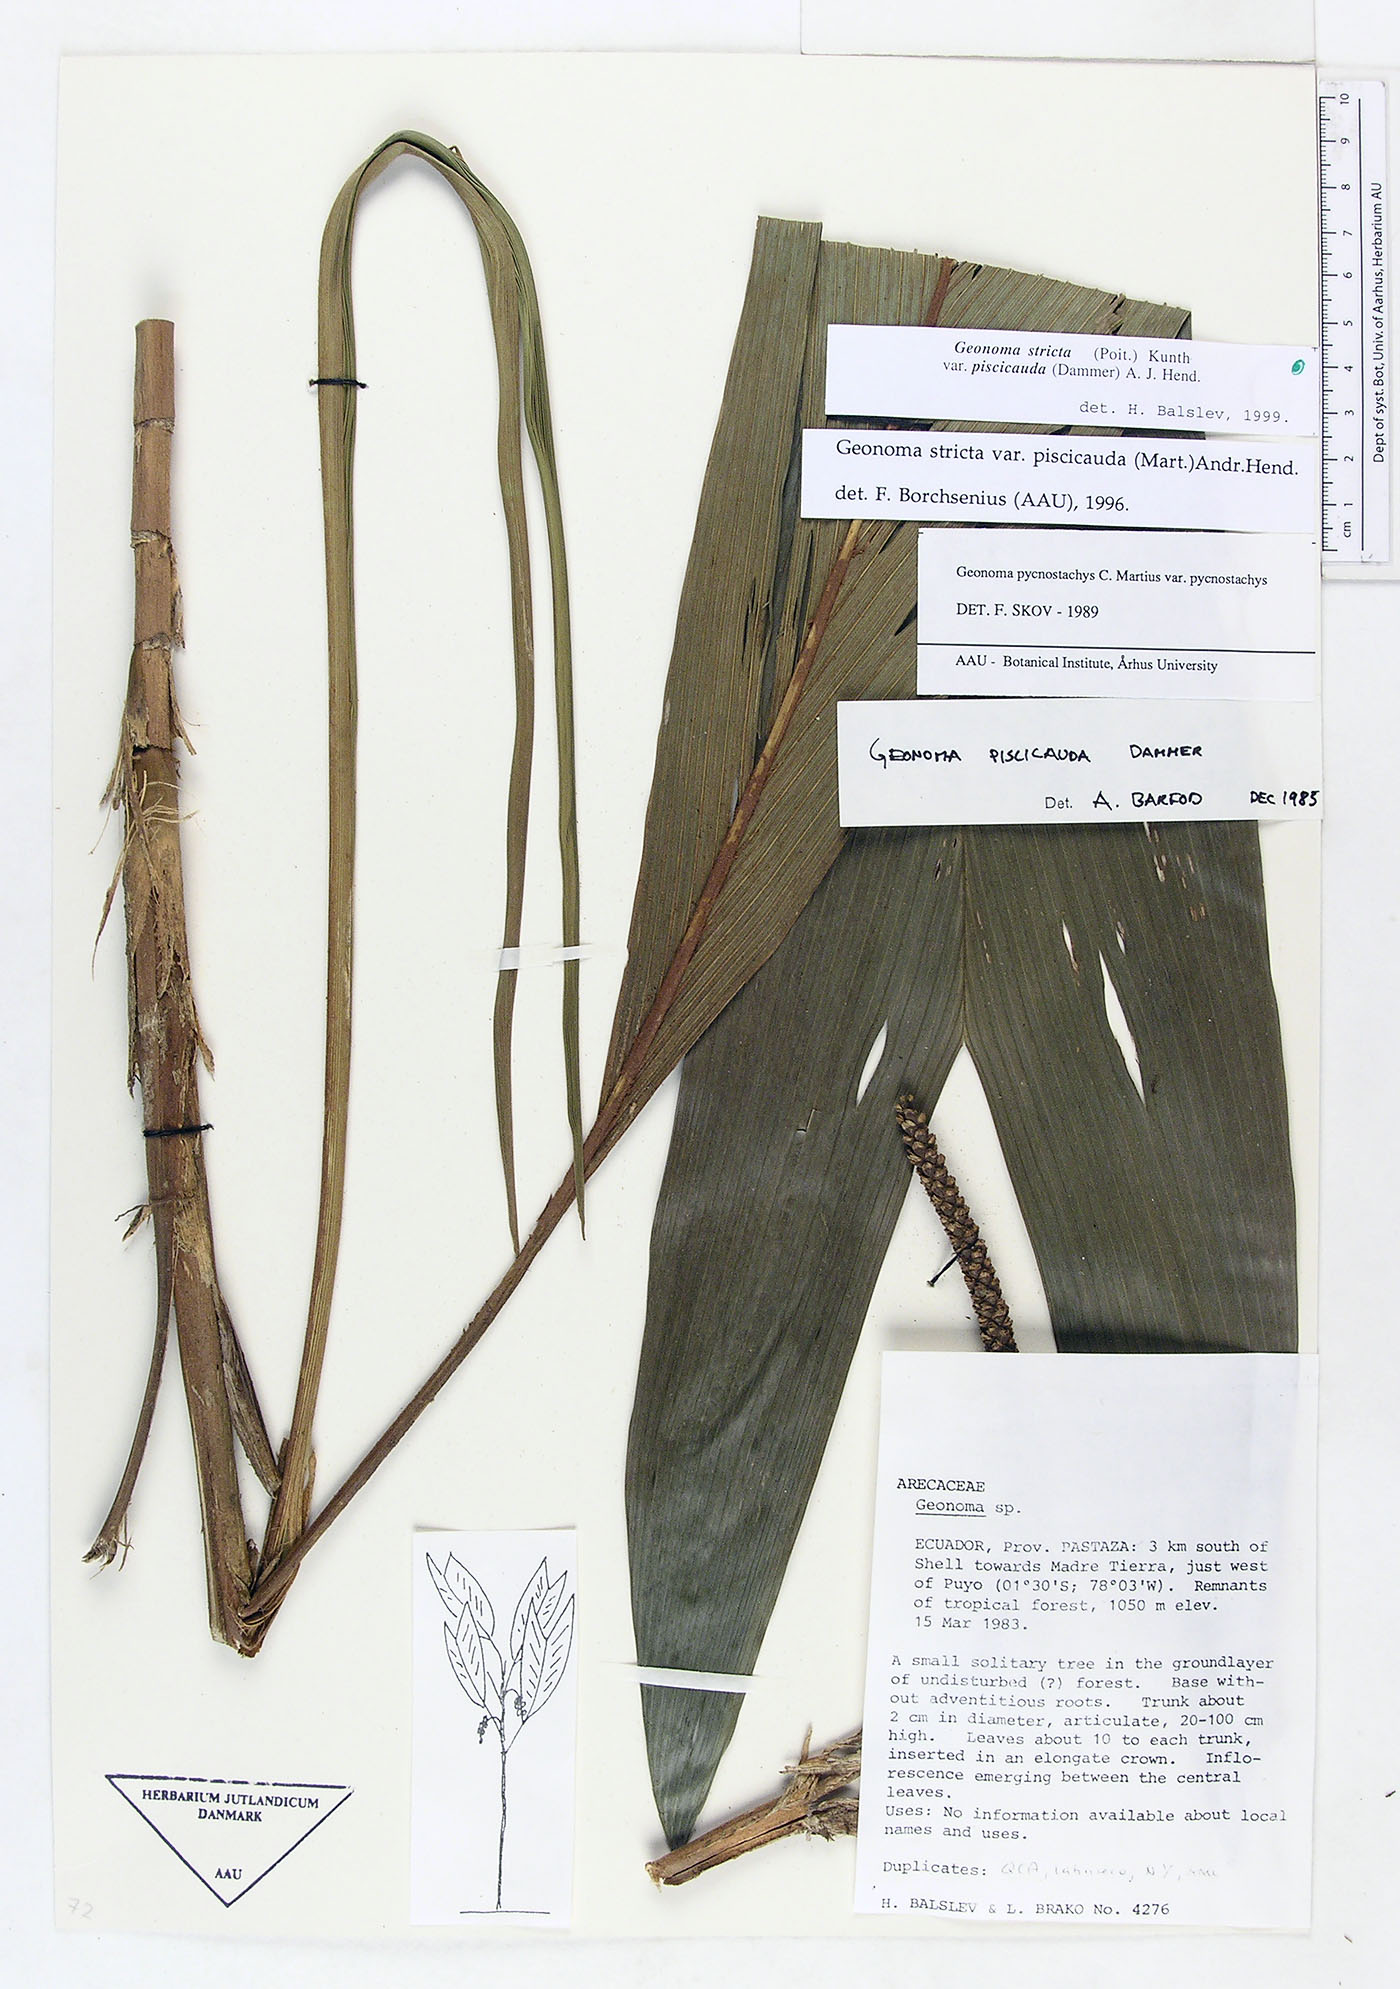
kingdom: Plantae
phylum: Tracheophyta
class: Liliopsida
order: Arecales
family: Arecaceae
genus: Geonoma
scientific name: Geonoma stricta
